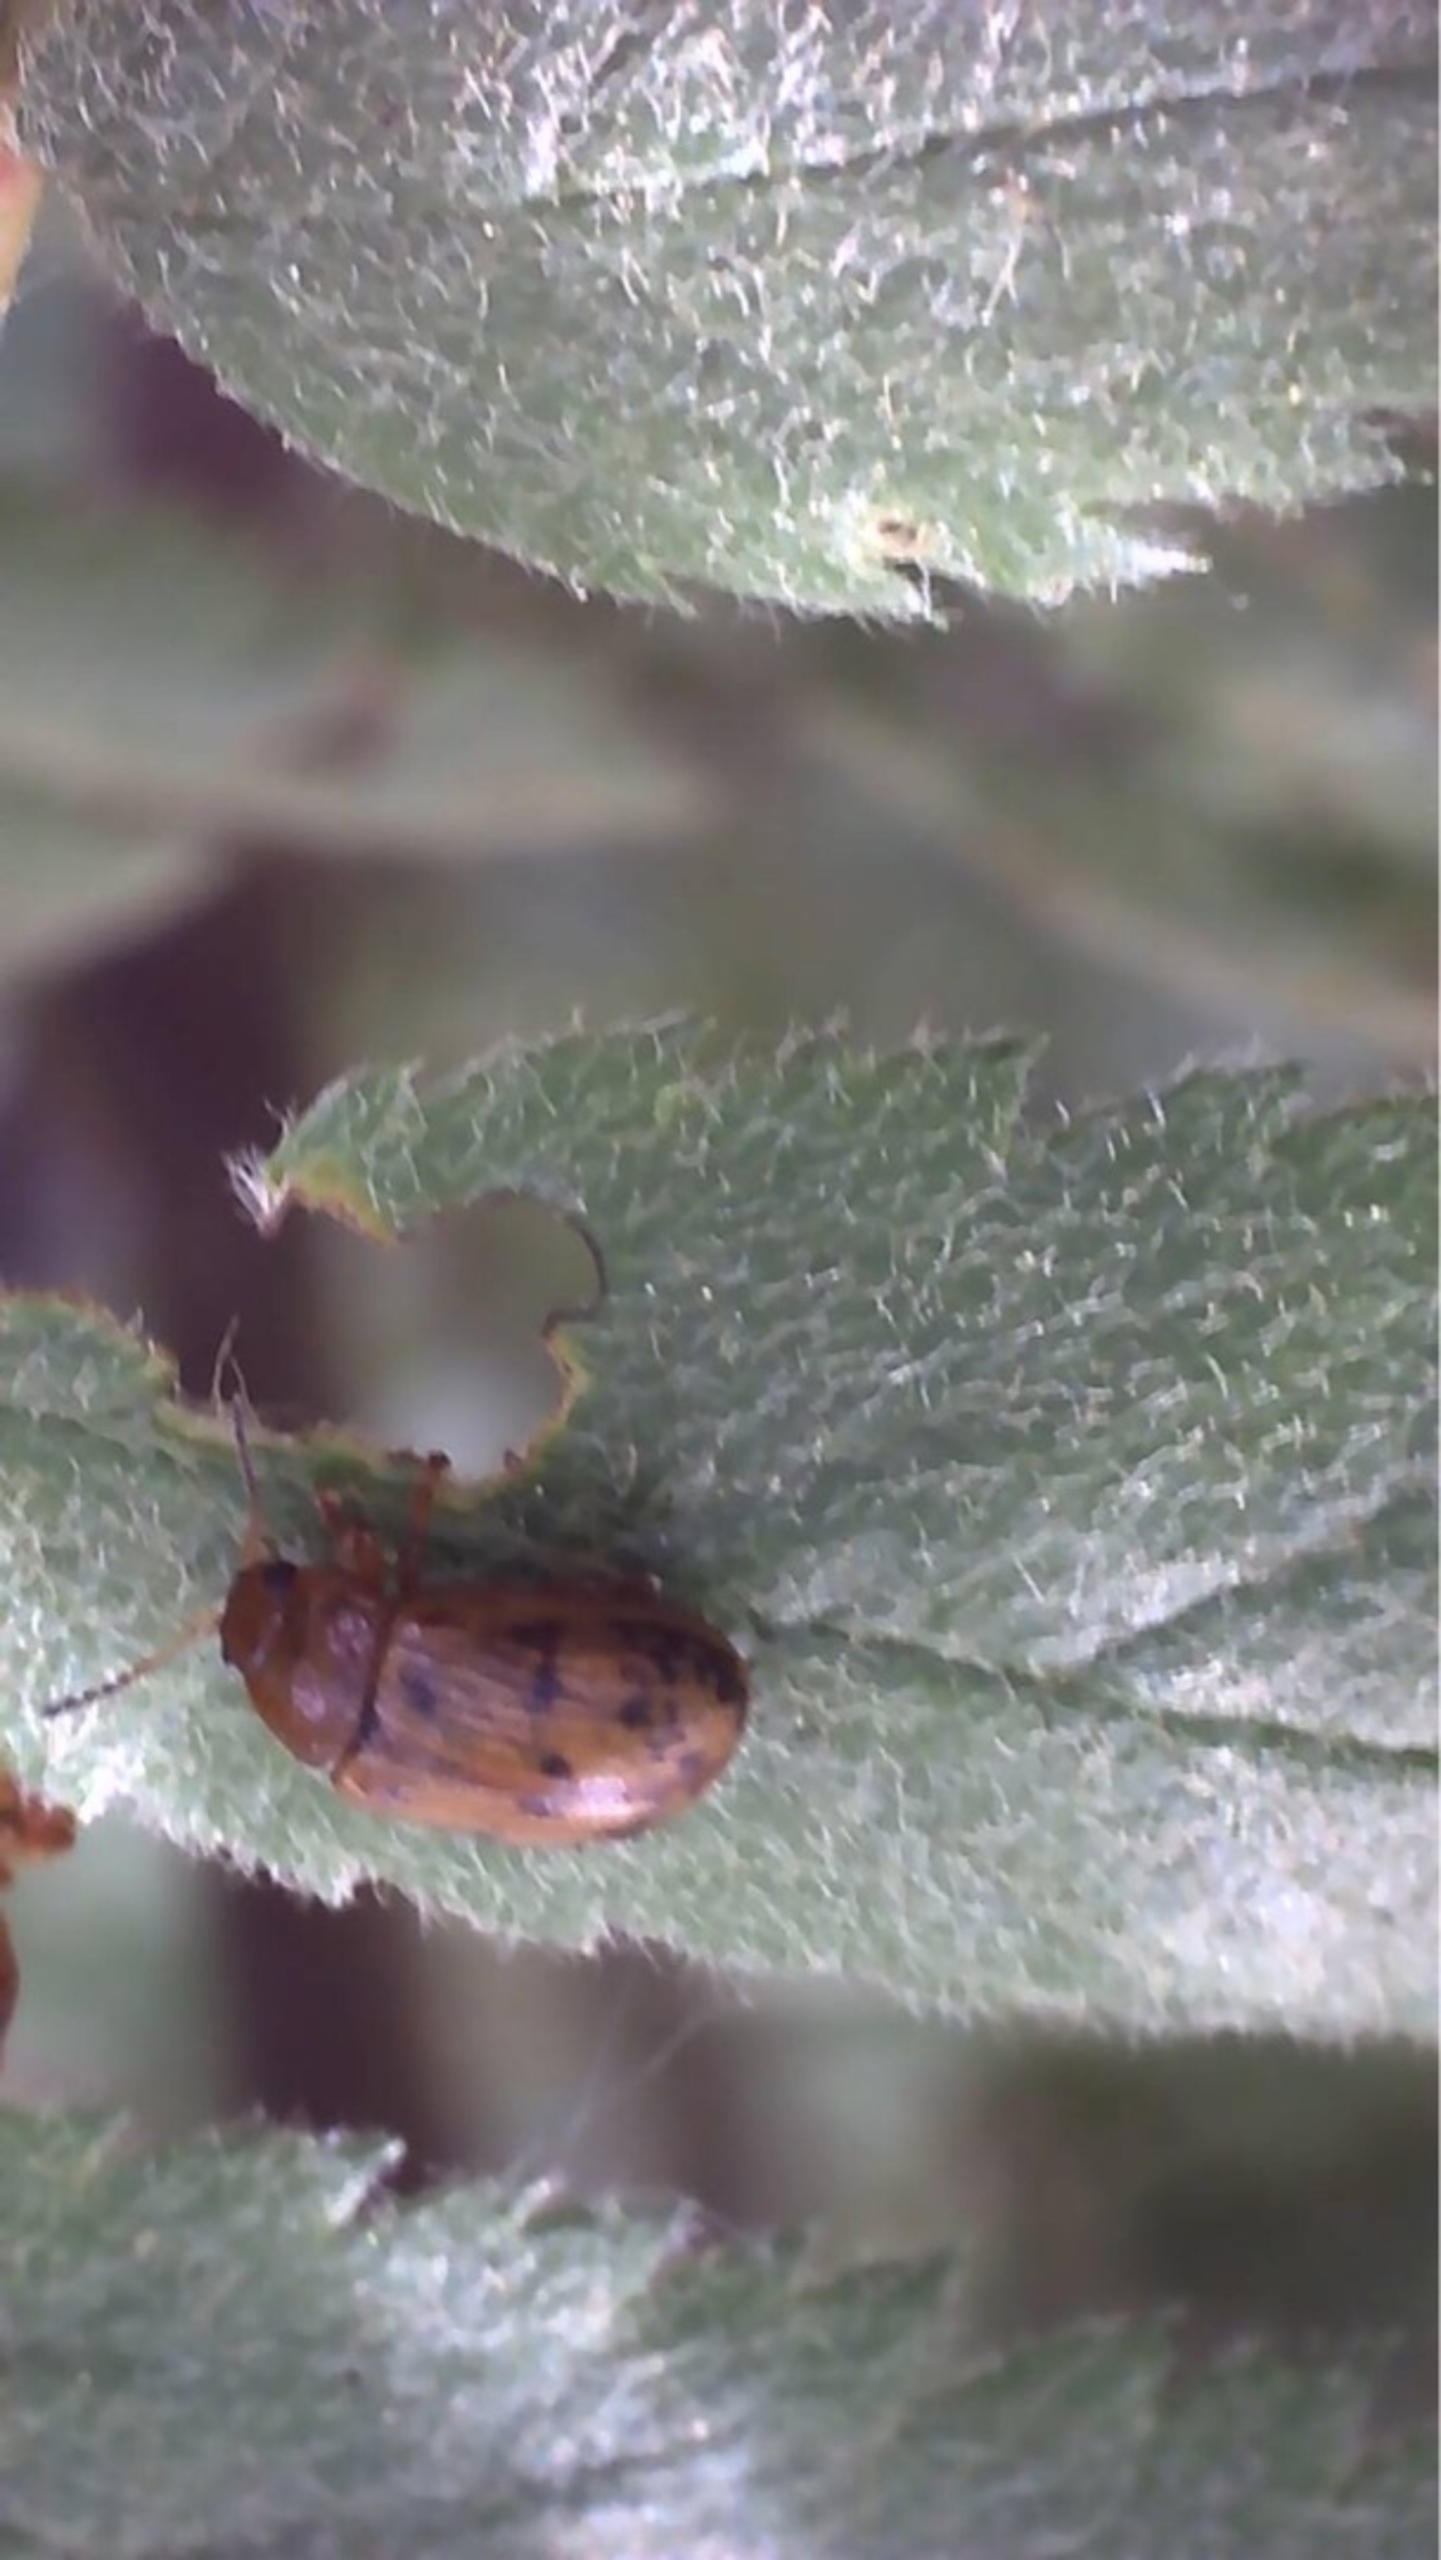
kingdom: Animalia
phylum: Arthropoda
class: Insecta
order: Coleoptera
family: Chrysomelidae
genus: Gonioctena
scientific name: Gonioctena quinquepunctata
